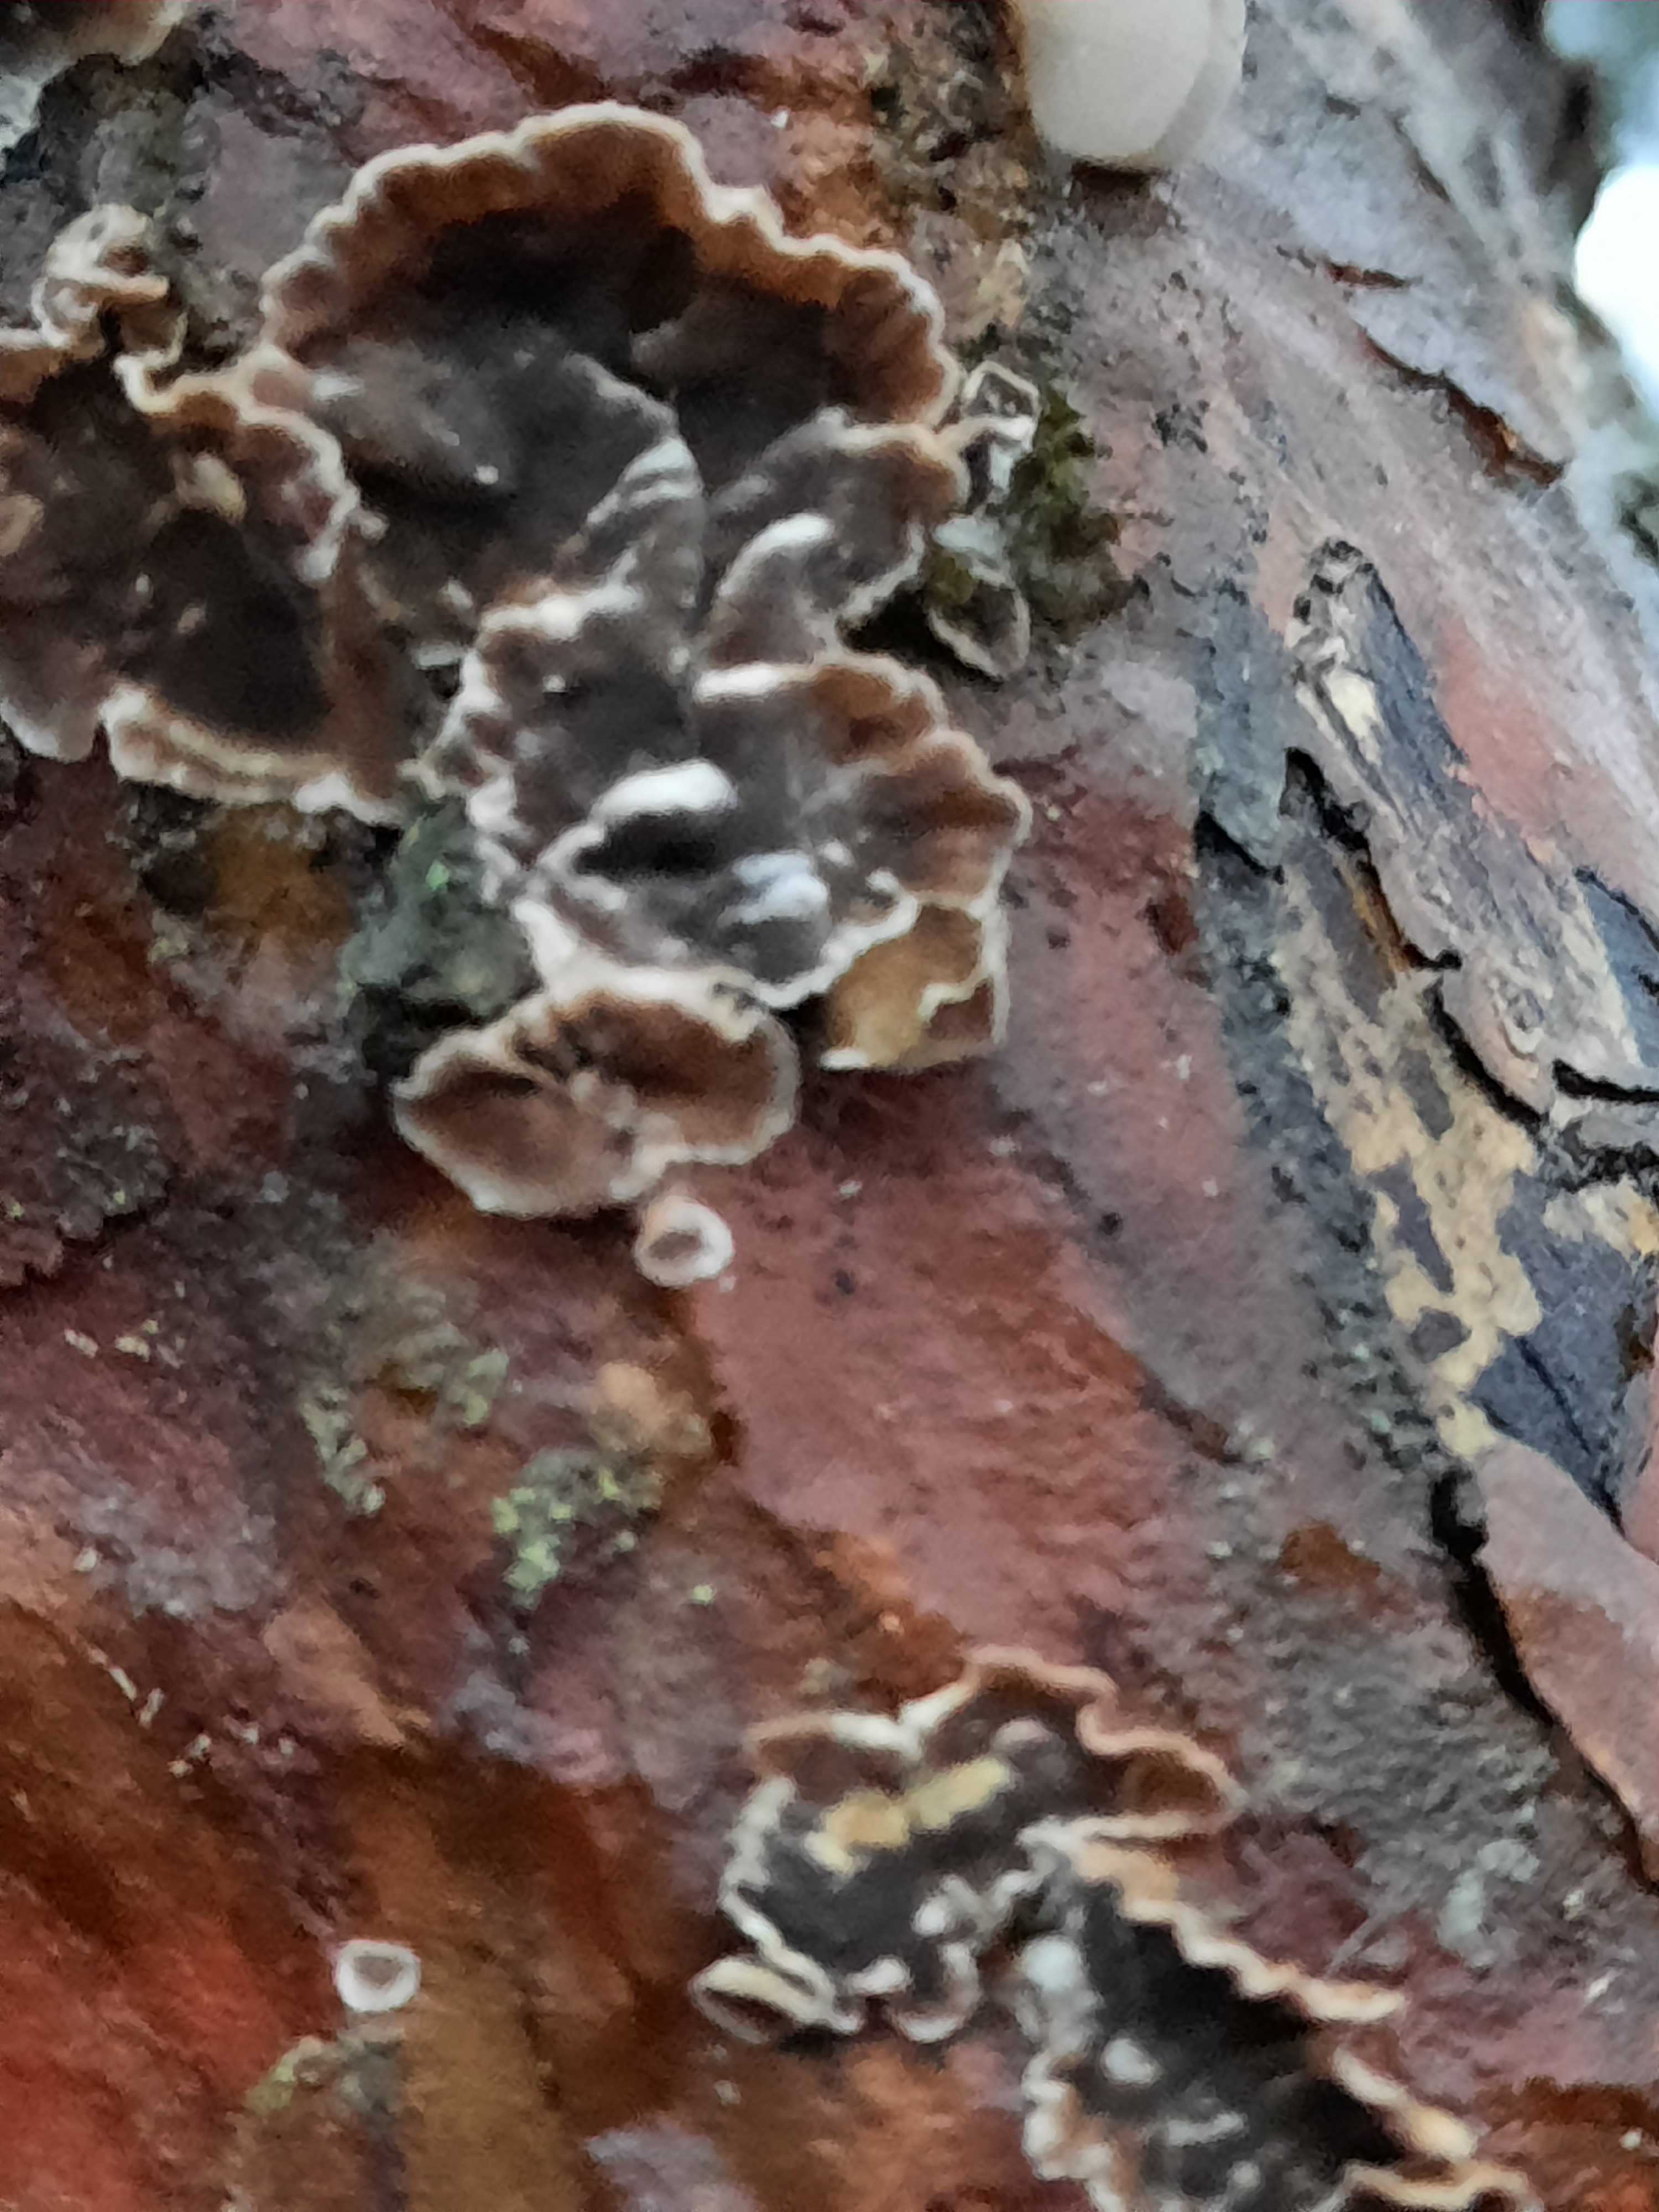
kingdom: Fungi
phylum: Basidiomycota
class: Agaricomycetes
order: Russulales
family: Stereaceae
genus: Stereum
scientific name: Stereum sanguinolentum
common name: blødende lædersvamp
